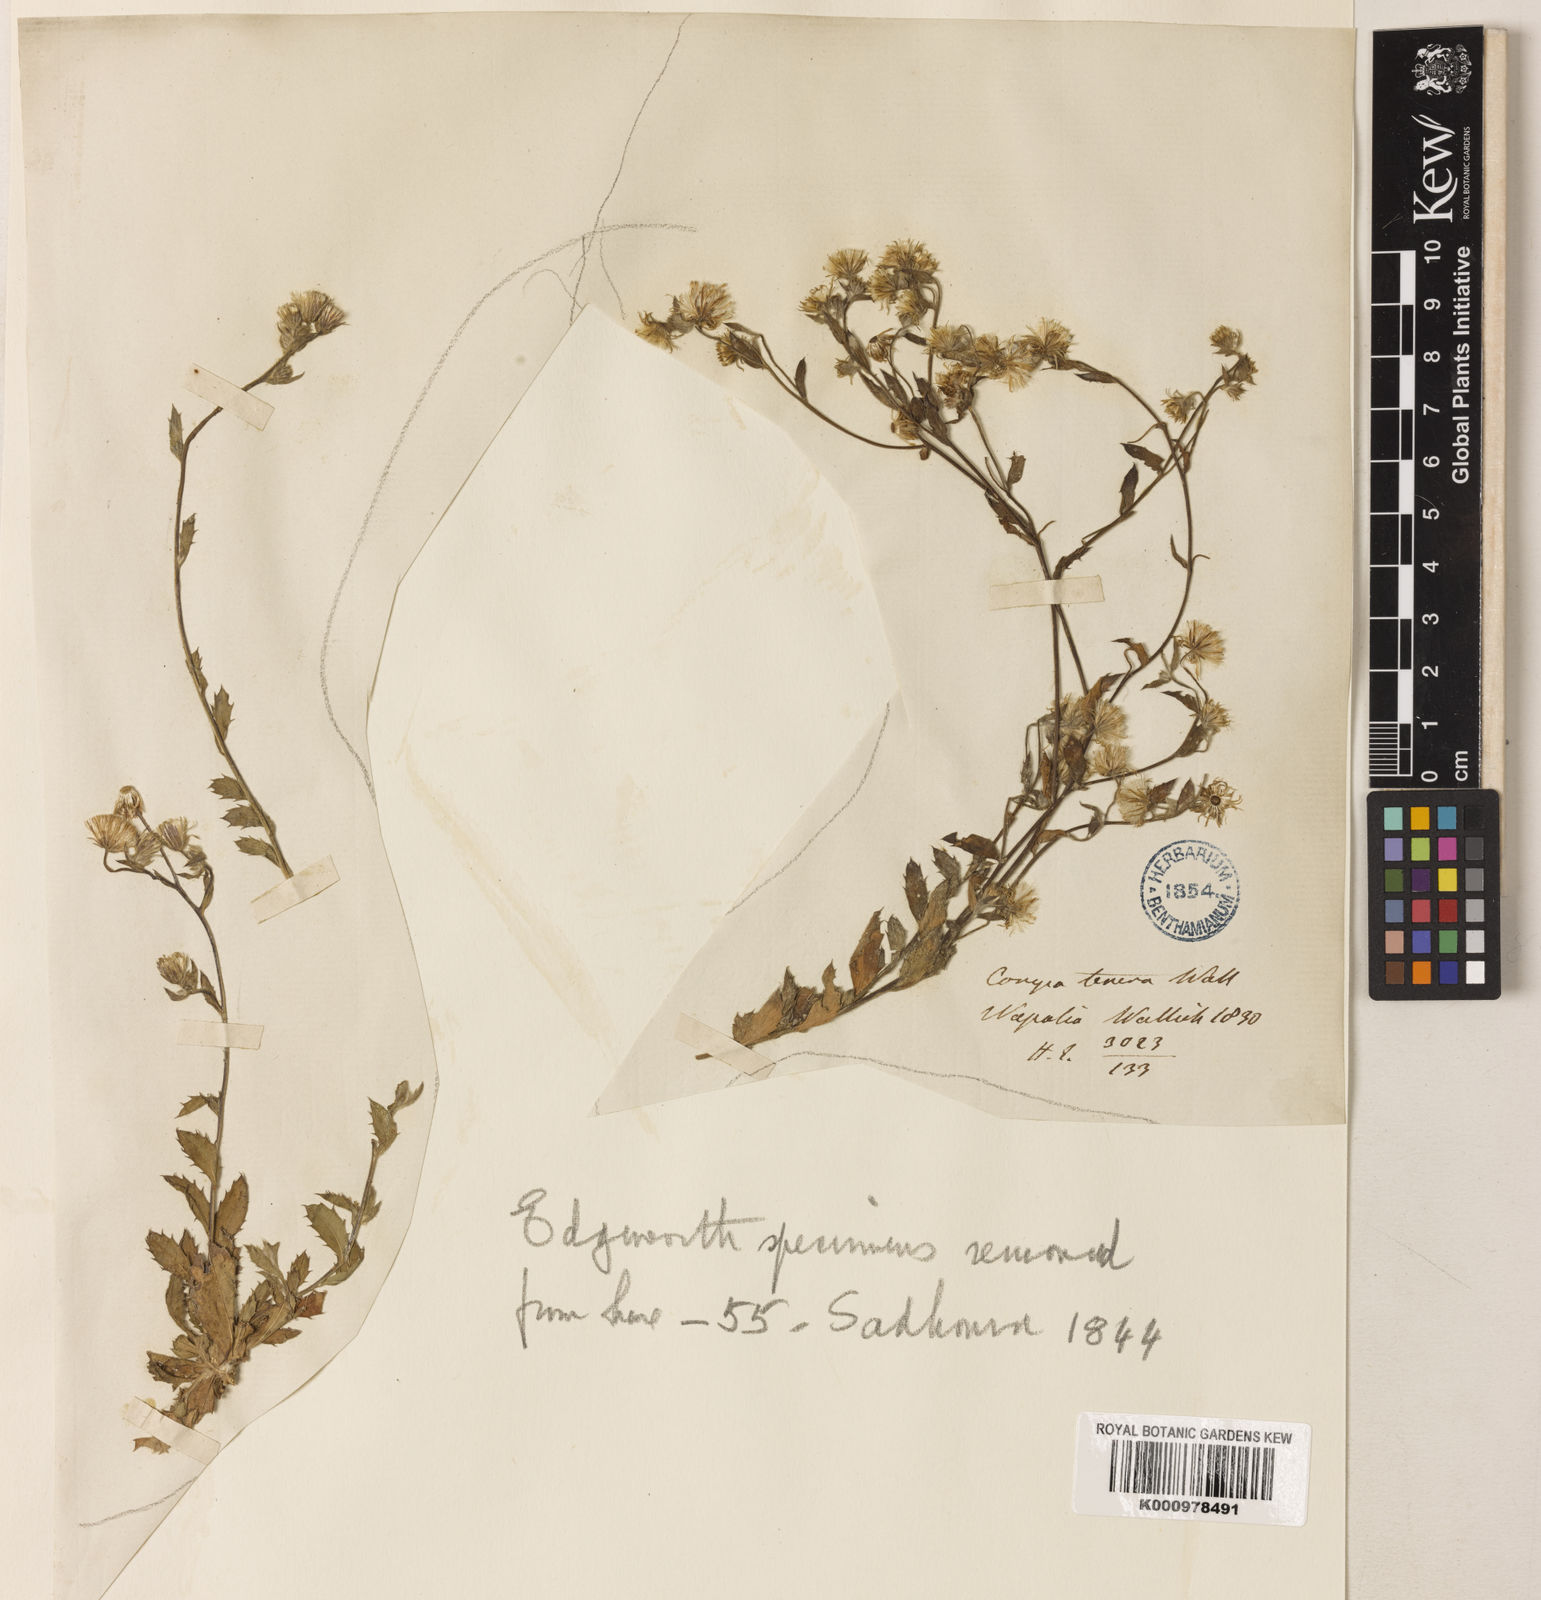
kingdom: Plantae
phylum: Tracheophyta
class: Magnoliopsida
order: Asterales
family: Asteraceae
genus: Blumea
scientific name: Blumea oxyodonta
